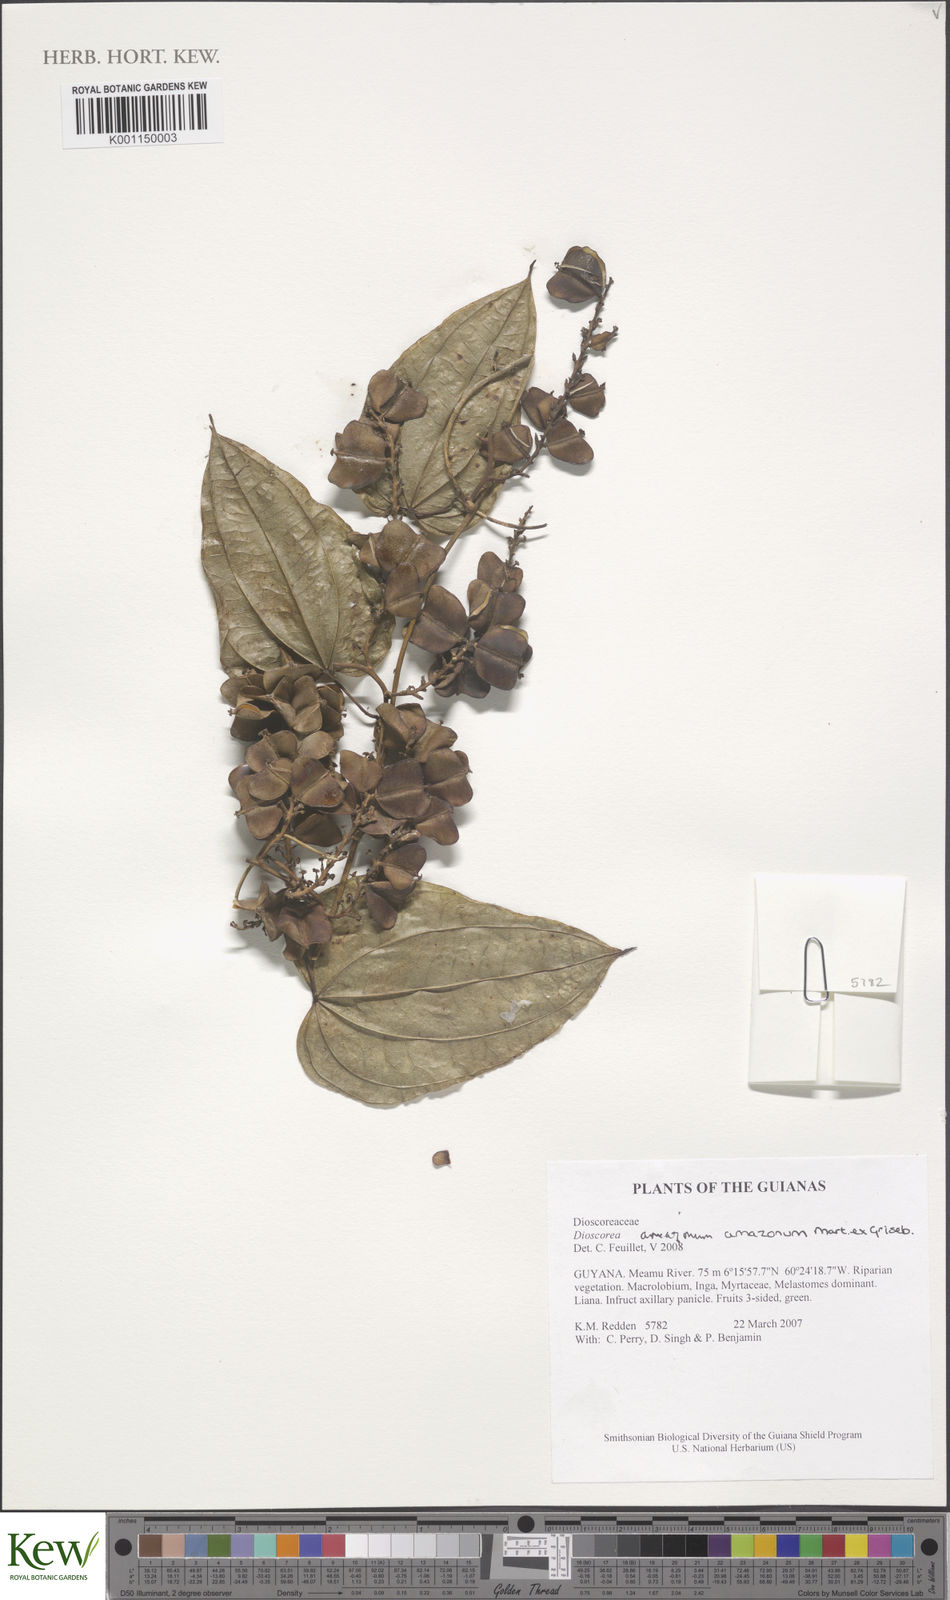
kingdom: Plantae
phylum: Tracheophyta
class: Liliopsida
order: Dioscoreales
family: Dioscoreaceae
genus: Dioscorea
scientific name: Dioscorea amazonum
